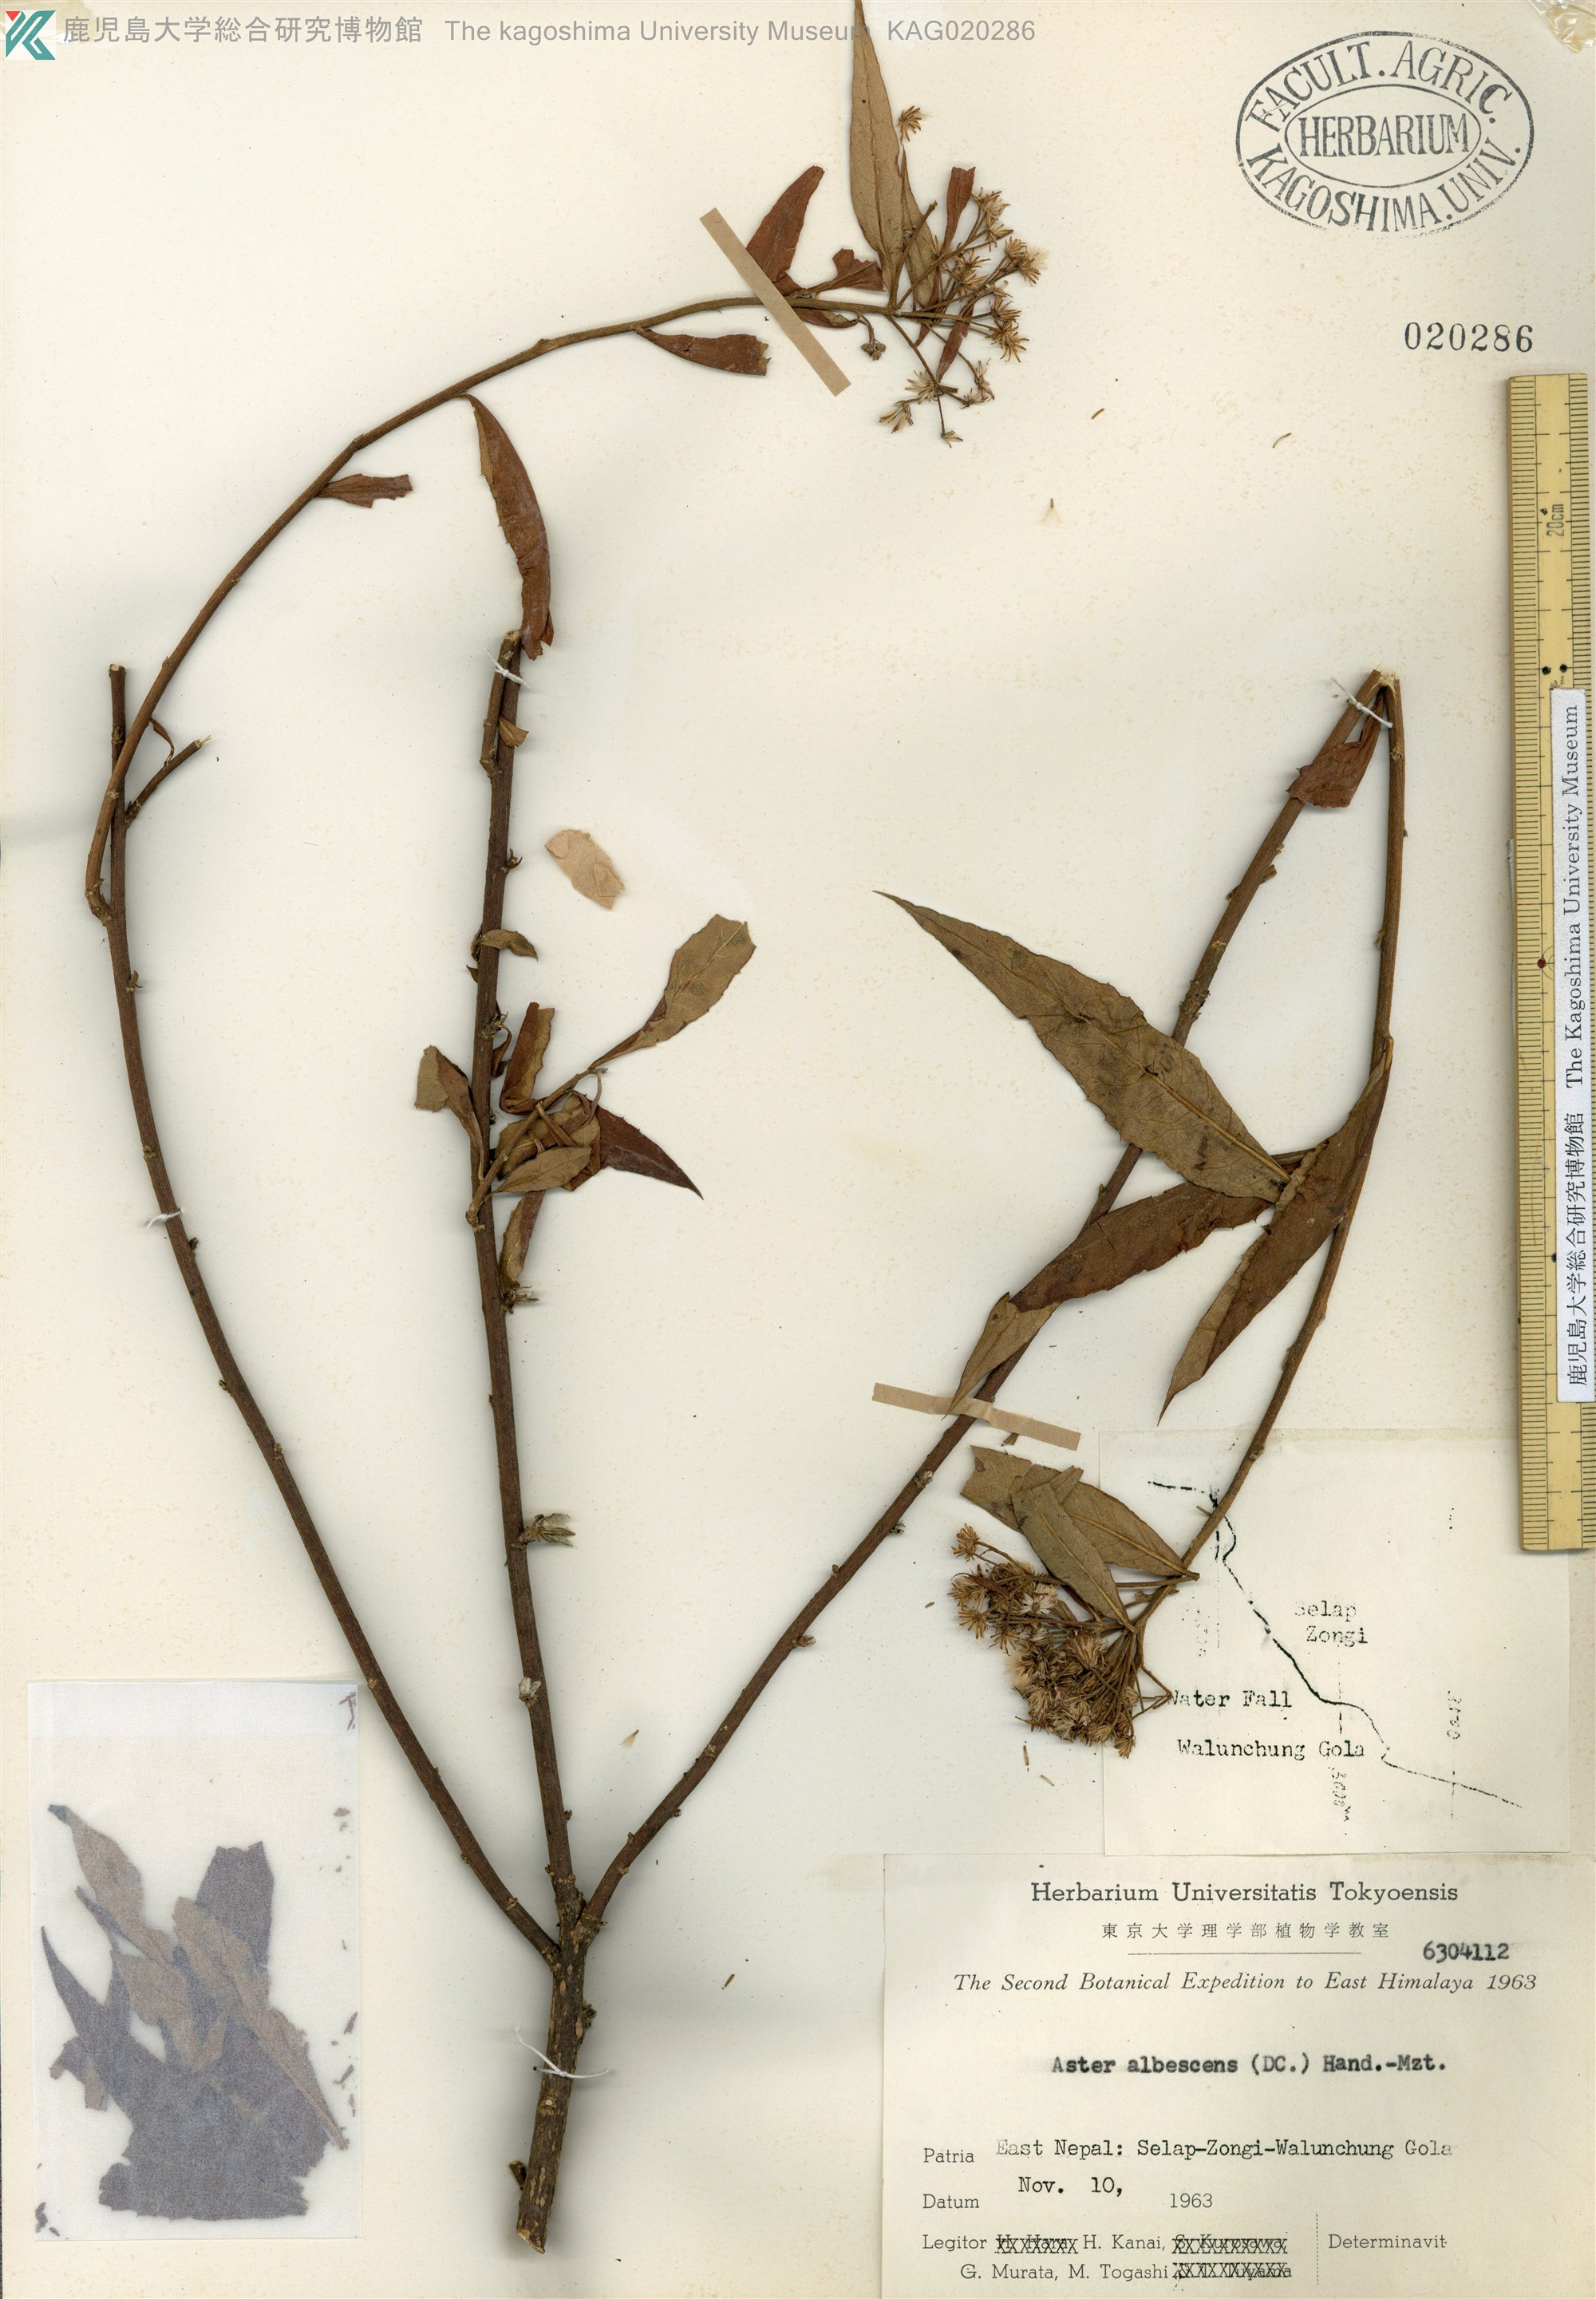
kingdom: Plantae
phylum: Tracheophyta
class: Magnoliopsida
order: Asterales
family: Asteraceae
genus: Sinosidus
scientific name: Sinosidus albescens
